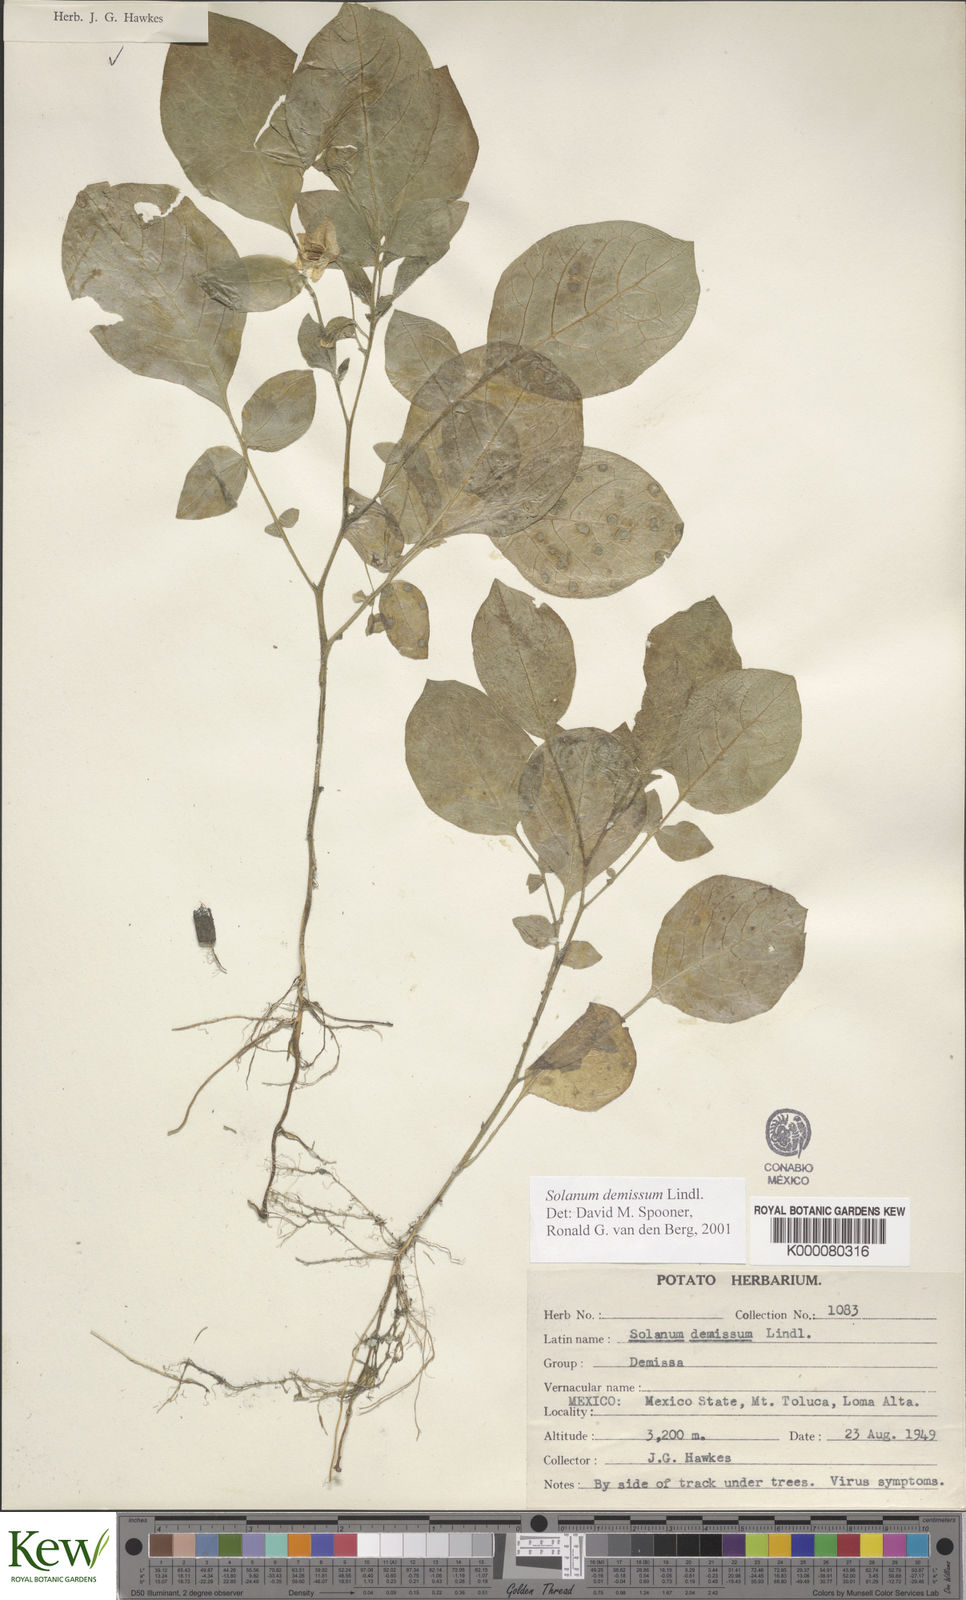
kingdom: Plantae
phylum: Tracheophyta
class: Magnoliopsida
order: Solanales
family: Solanaceae
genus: Solanum
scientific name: Solanum demissum
